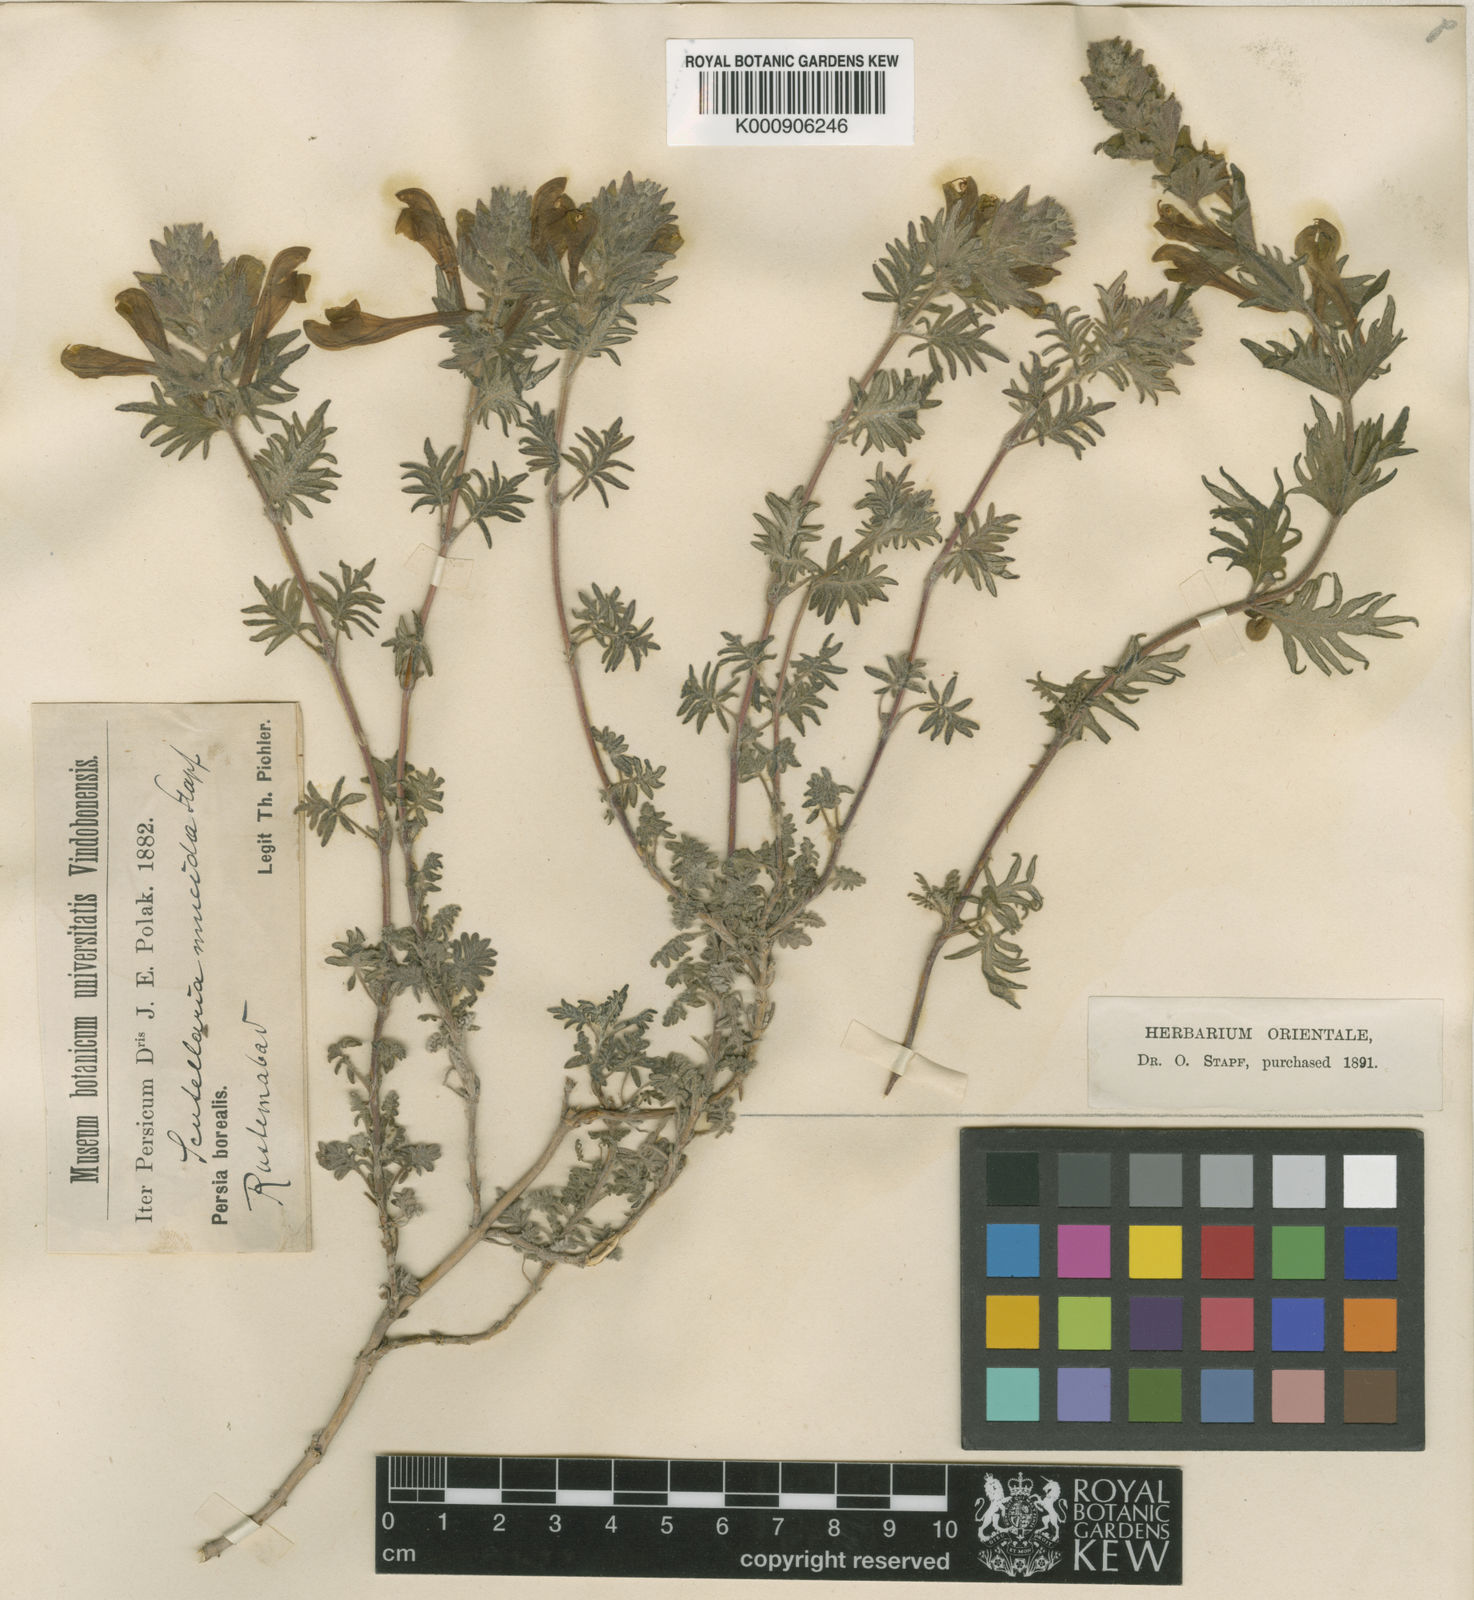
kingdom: Plantae
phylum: Tracheophyta
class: Magnoliopsida
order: Lamiales
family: Lamiaceae
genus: Scutellaria
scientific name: Scutellaria pinnatifida
